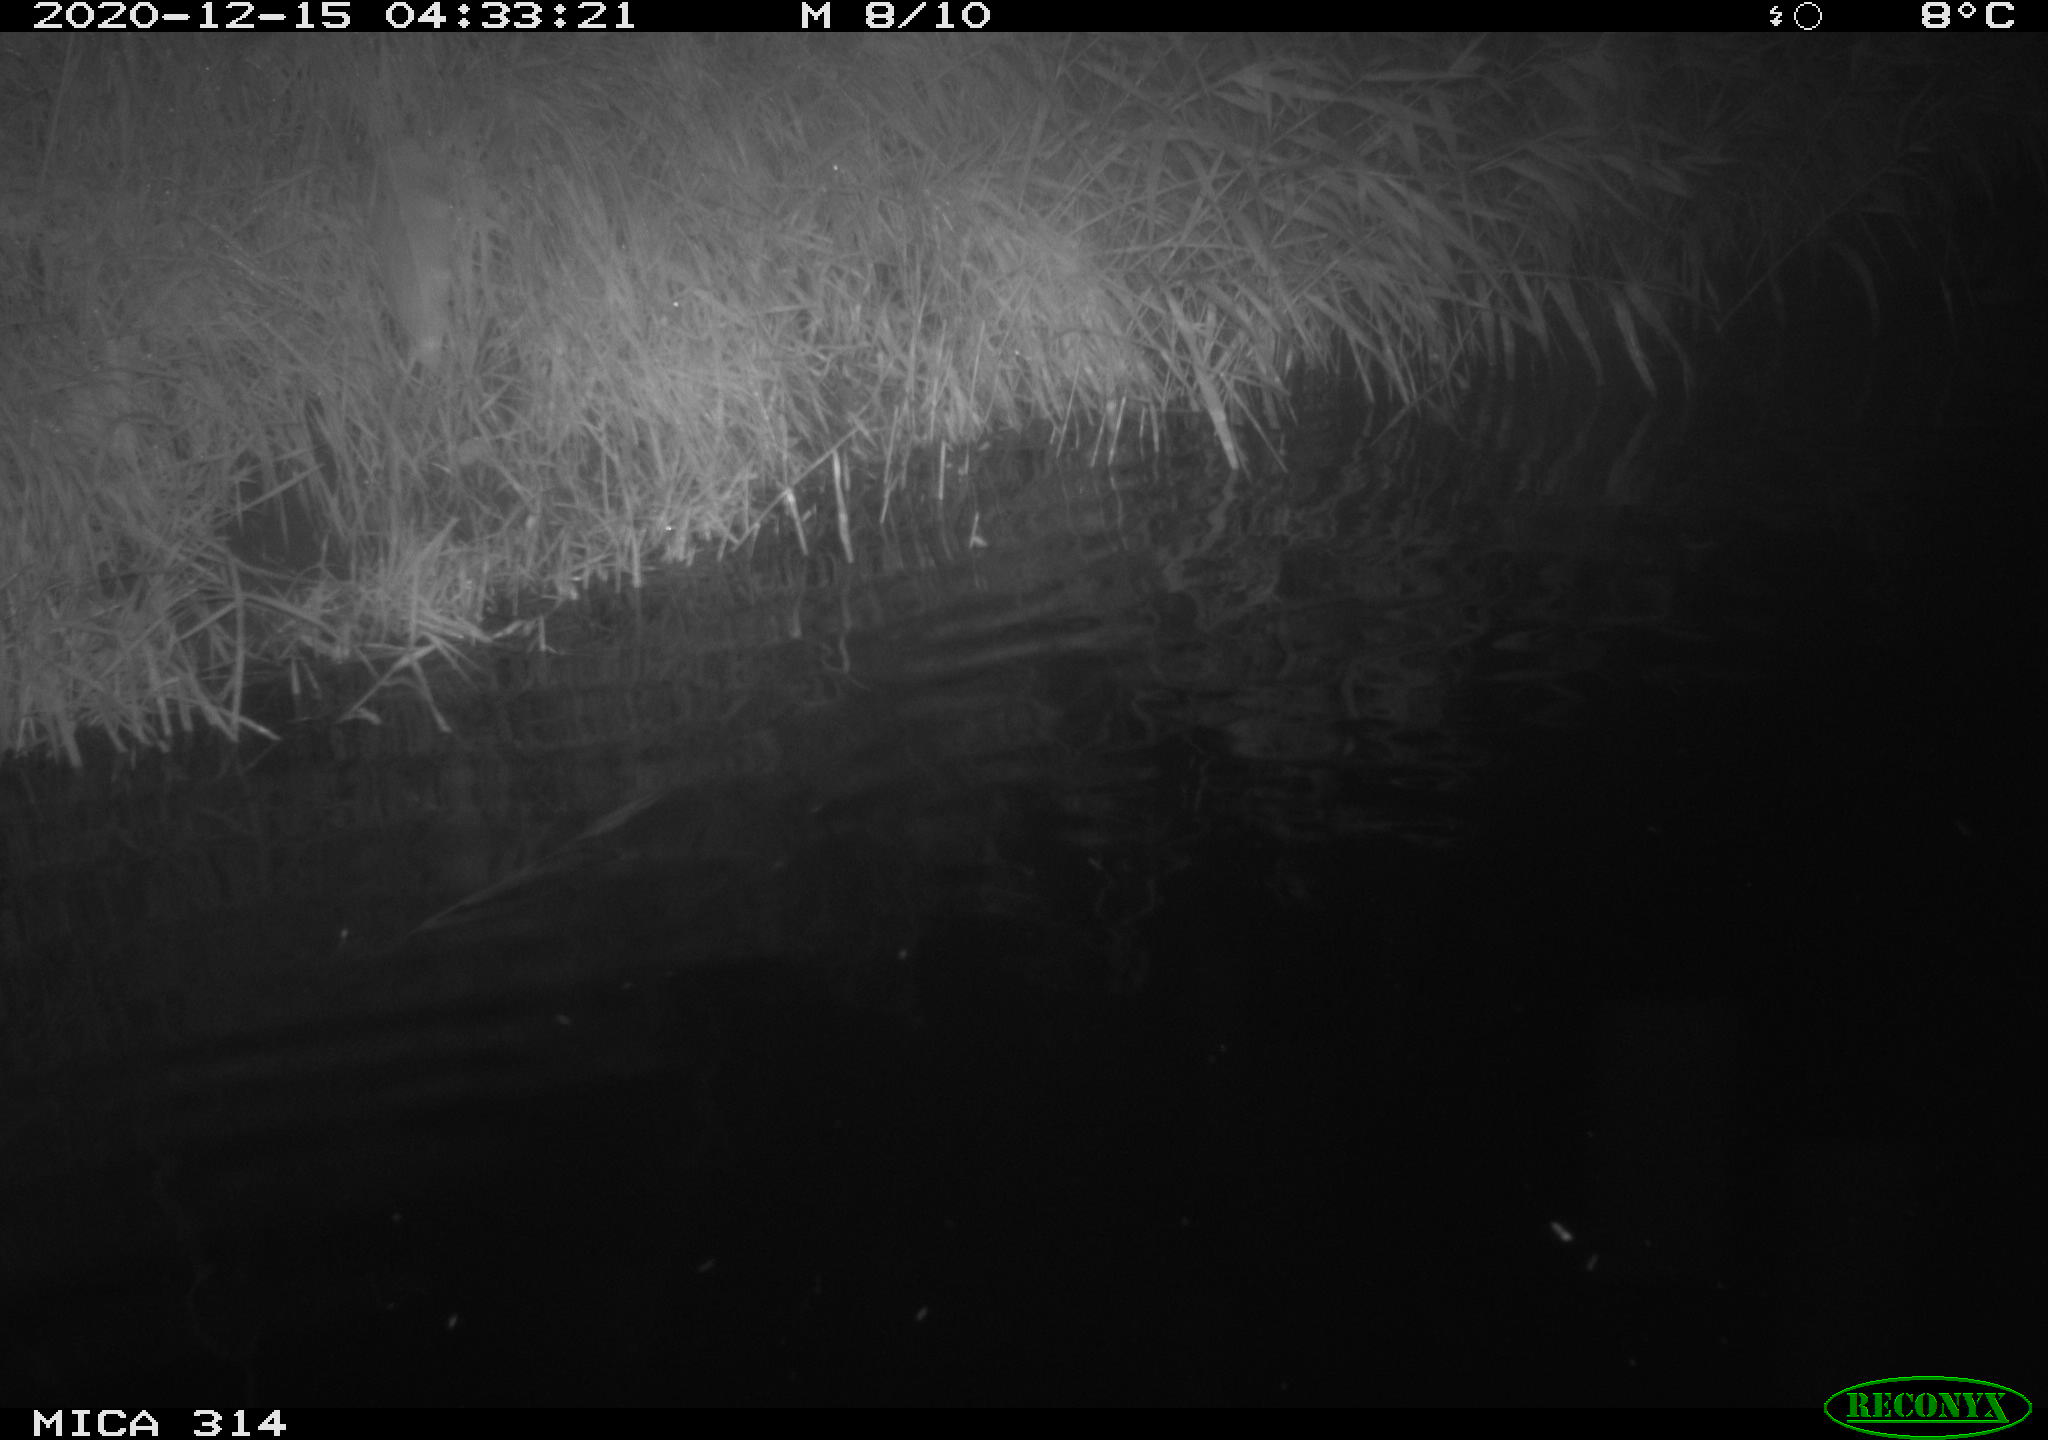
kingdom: Animalia
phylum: Chordata
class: Mammalia
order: Rodentia
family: Muridae
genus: Rattus
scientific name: Rattus norvegicus
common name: Brown rat
